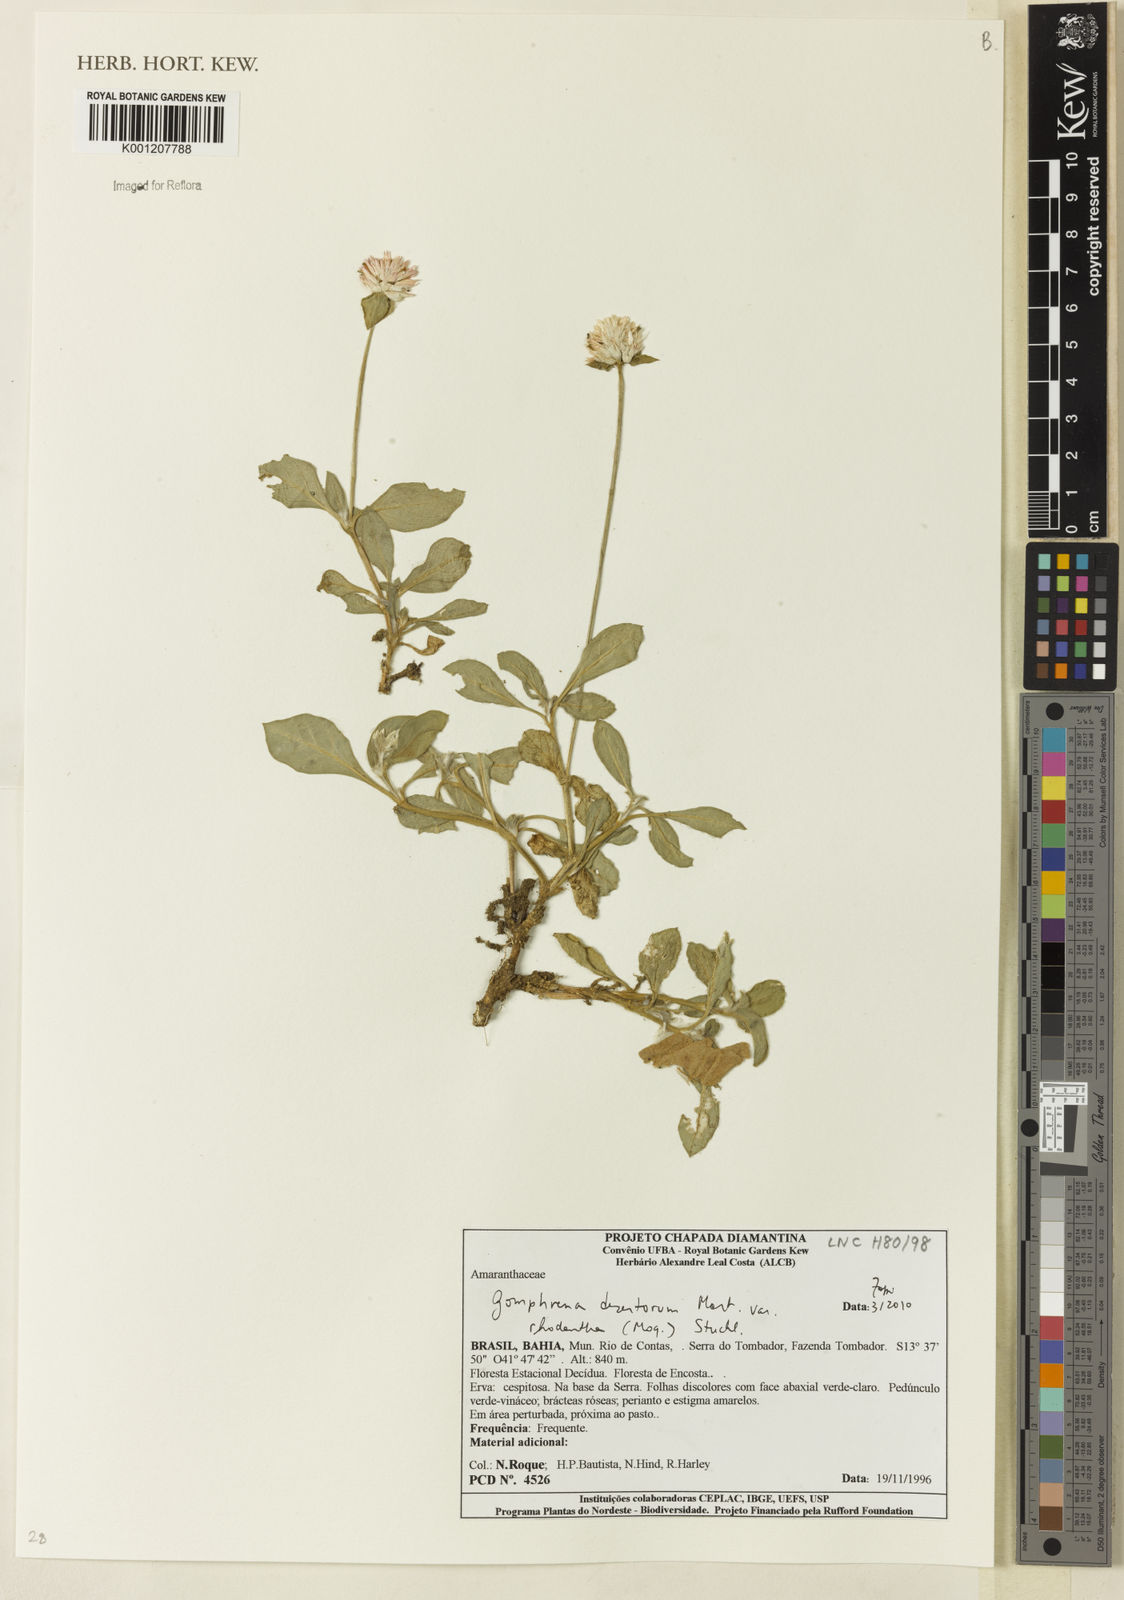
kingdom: Plantae
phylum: Tracheophyta
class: Magnoliopsida
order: Caryophyllales
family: Amaranthaceae
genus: Gomphrena
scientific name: Gomphrena desertorum
